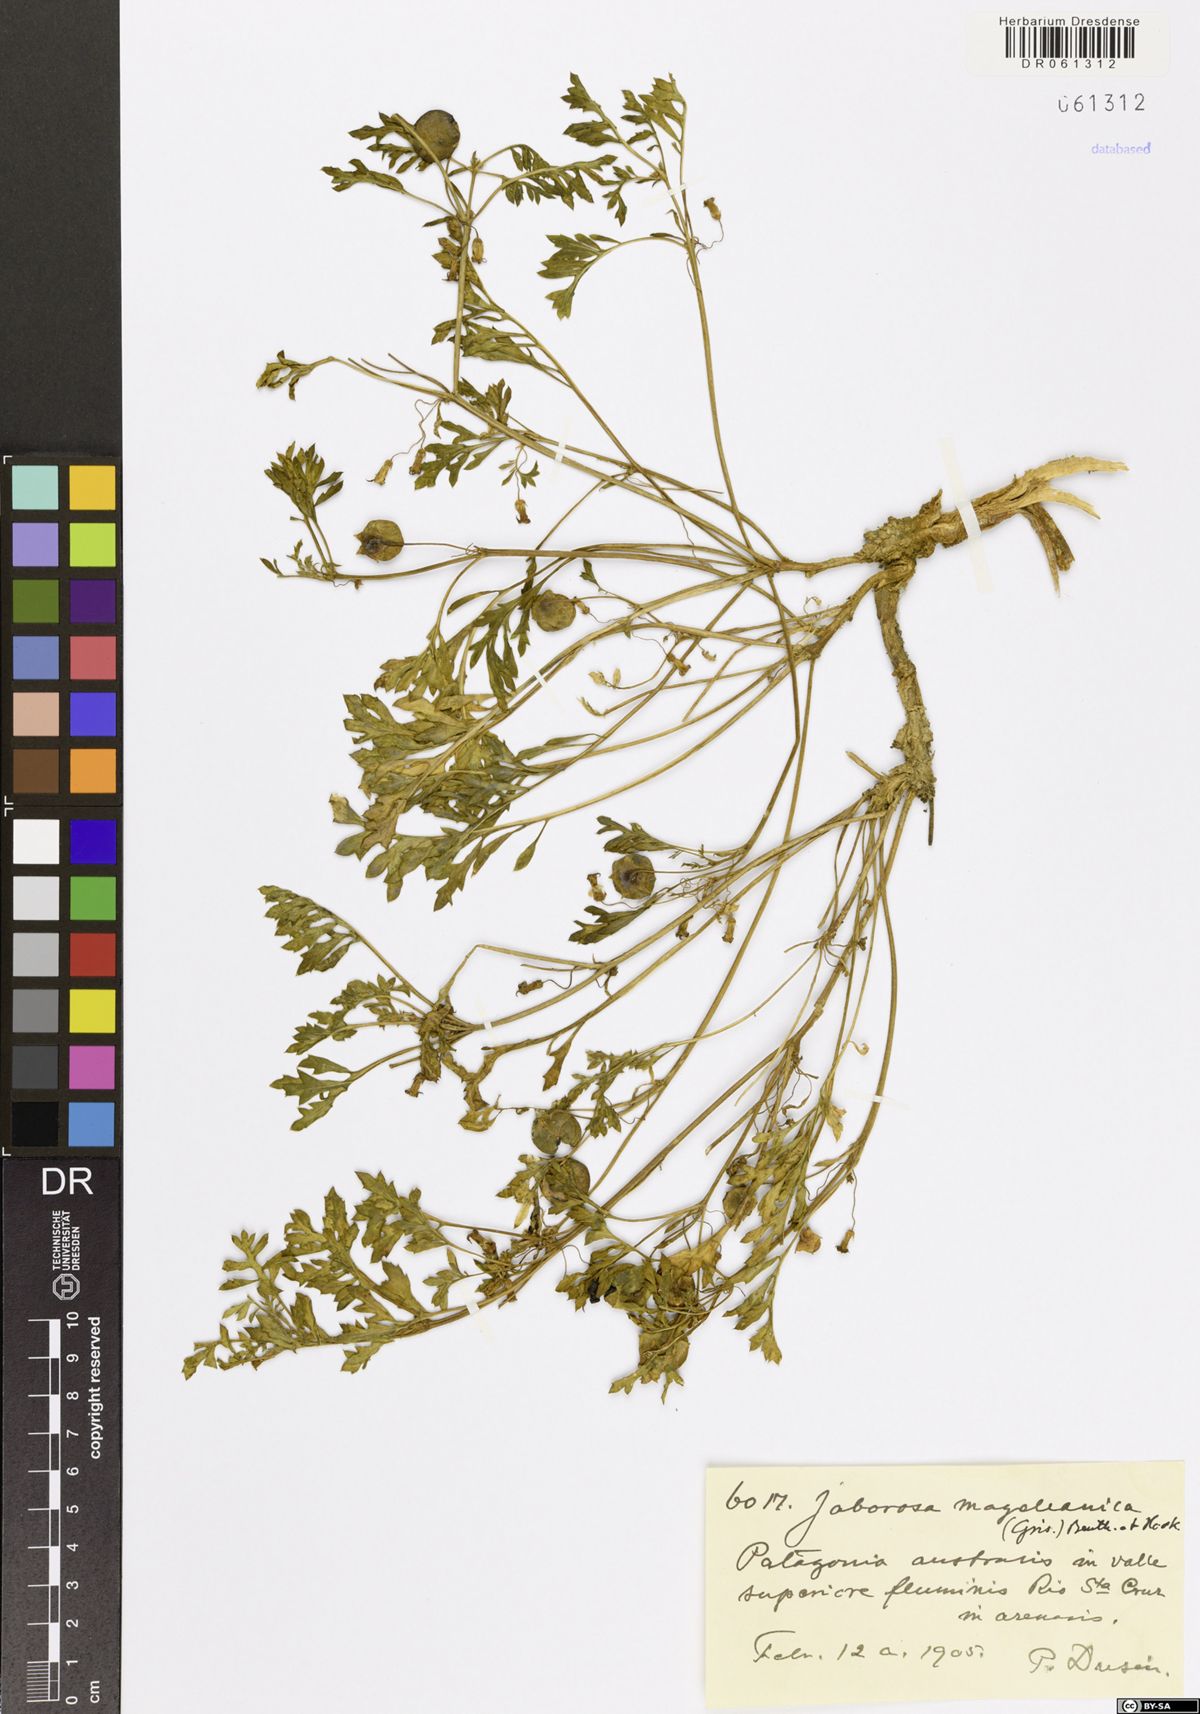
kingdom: Plantae
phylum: Tracheophyta
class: Magnoliopsida
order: Solanales
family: Solanaceae
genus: Jaborosa
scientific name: Jaborosa magellanica
